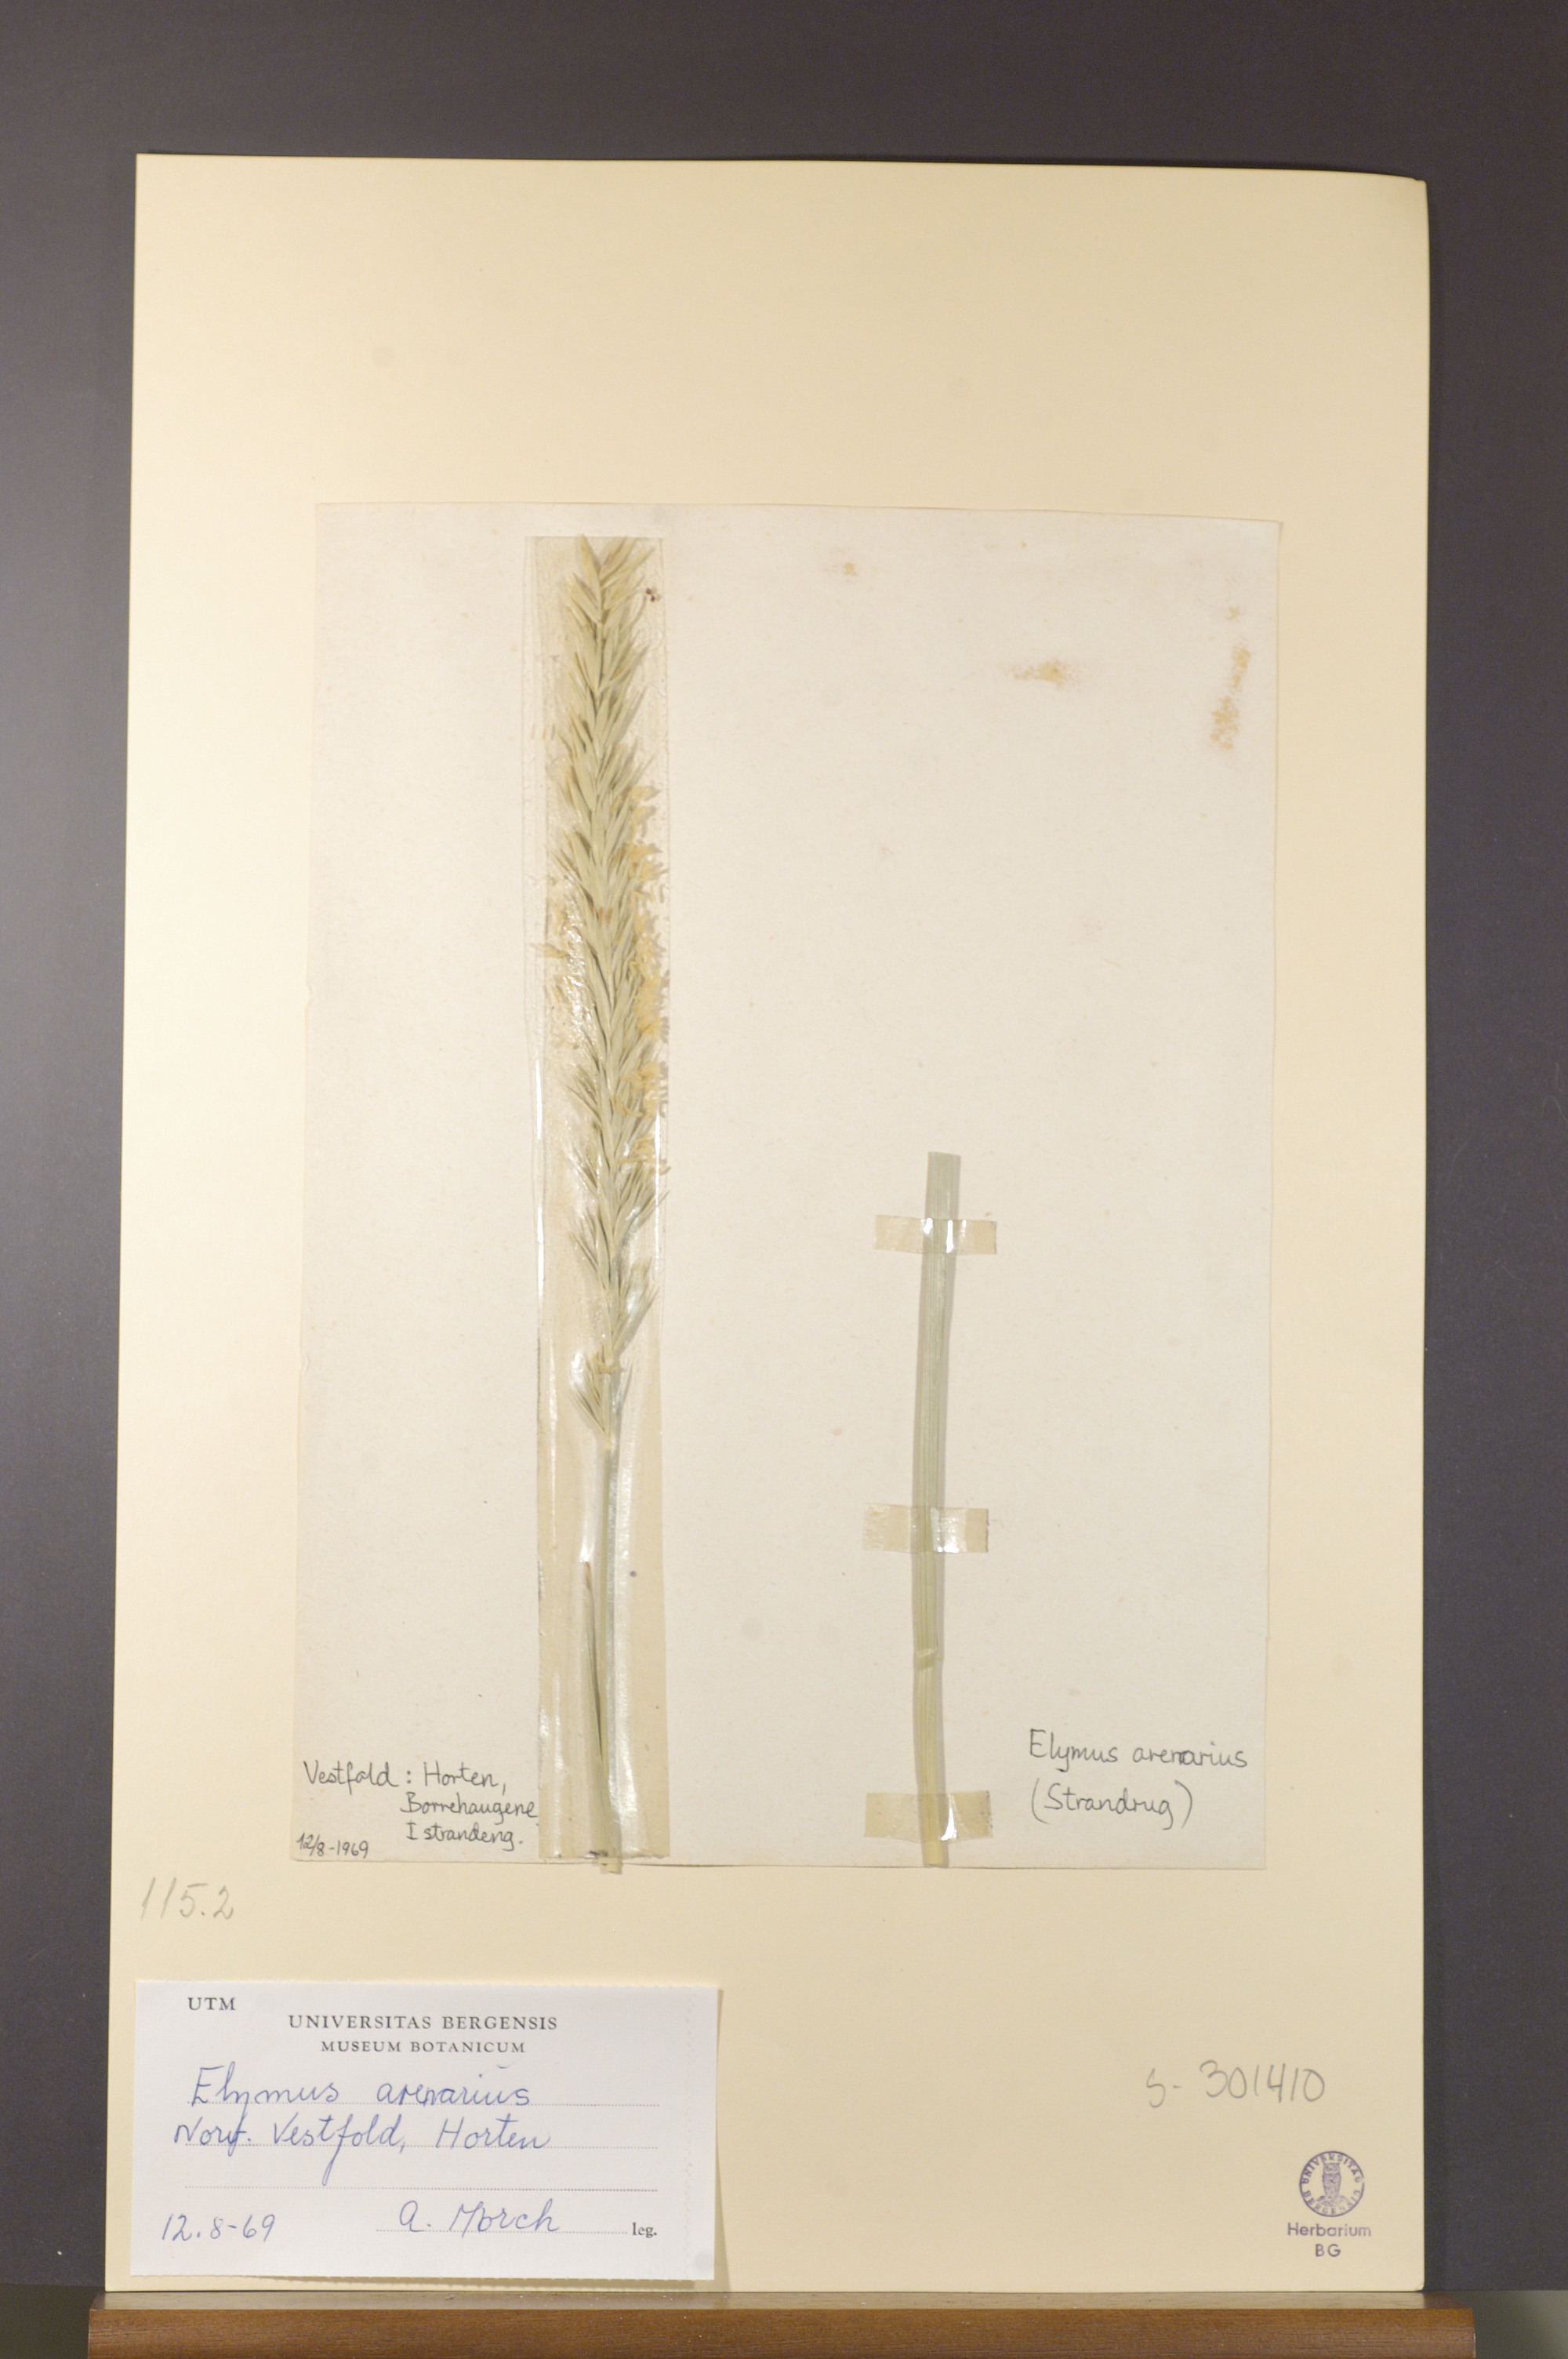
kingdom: Plantae
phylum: Tracheophyta
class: Liliopsida
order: Poales
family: Poaceae
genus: Leymus
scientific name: Leymus arenarius
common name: Lyme-grass
